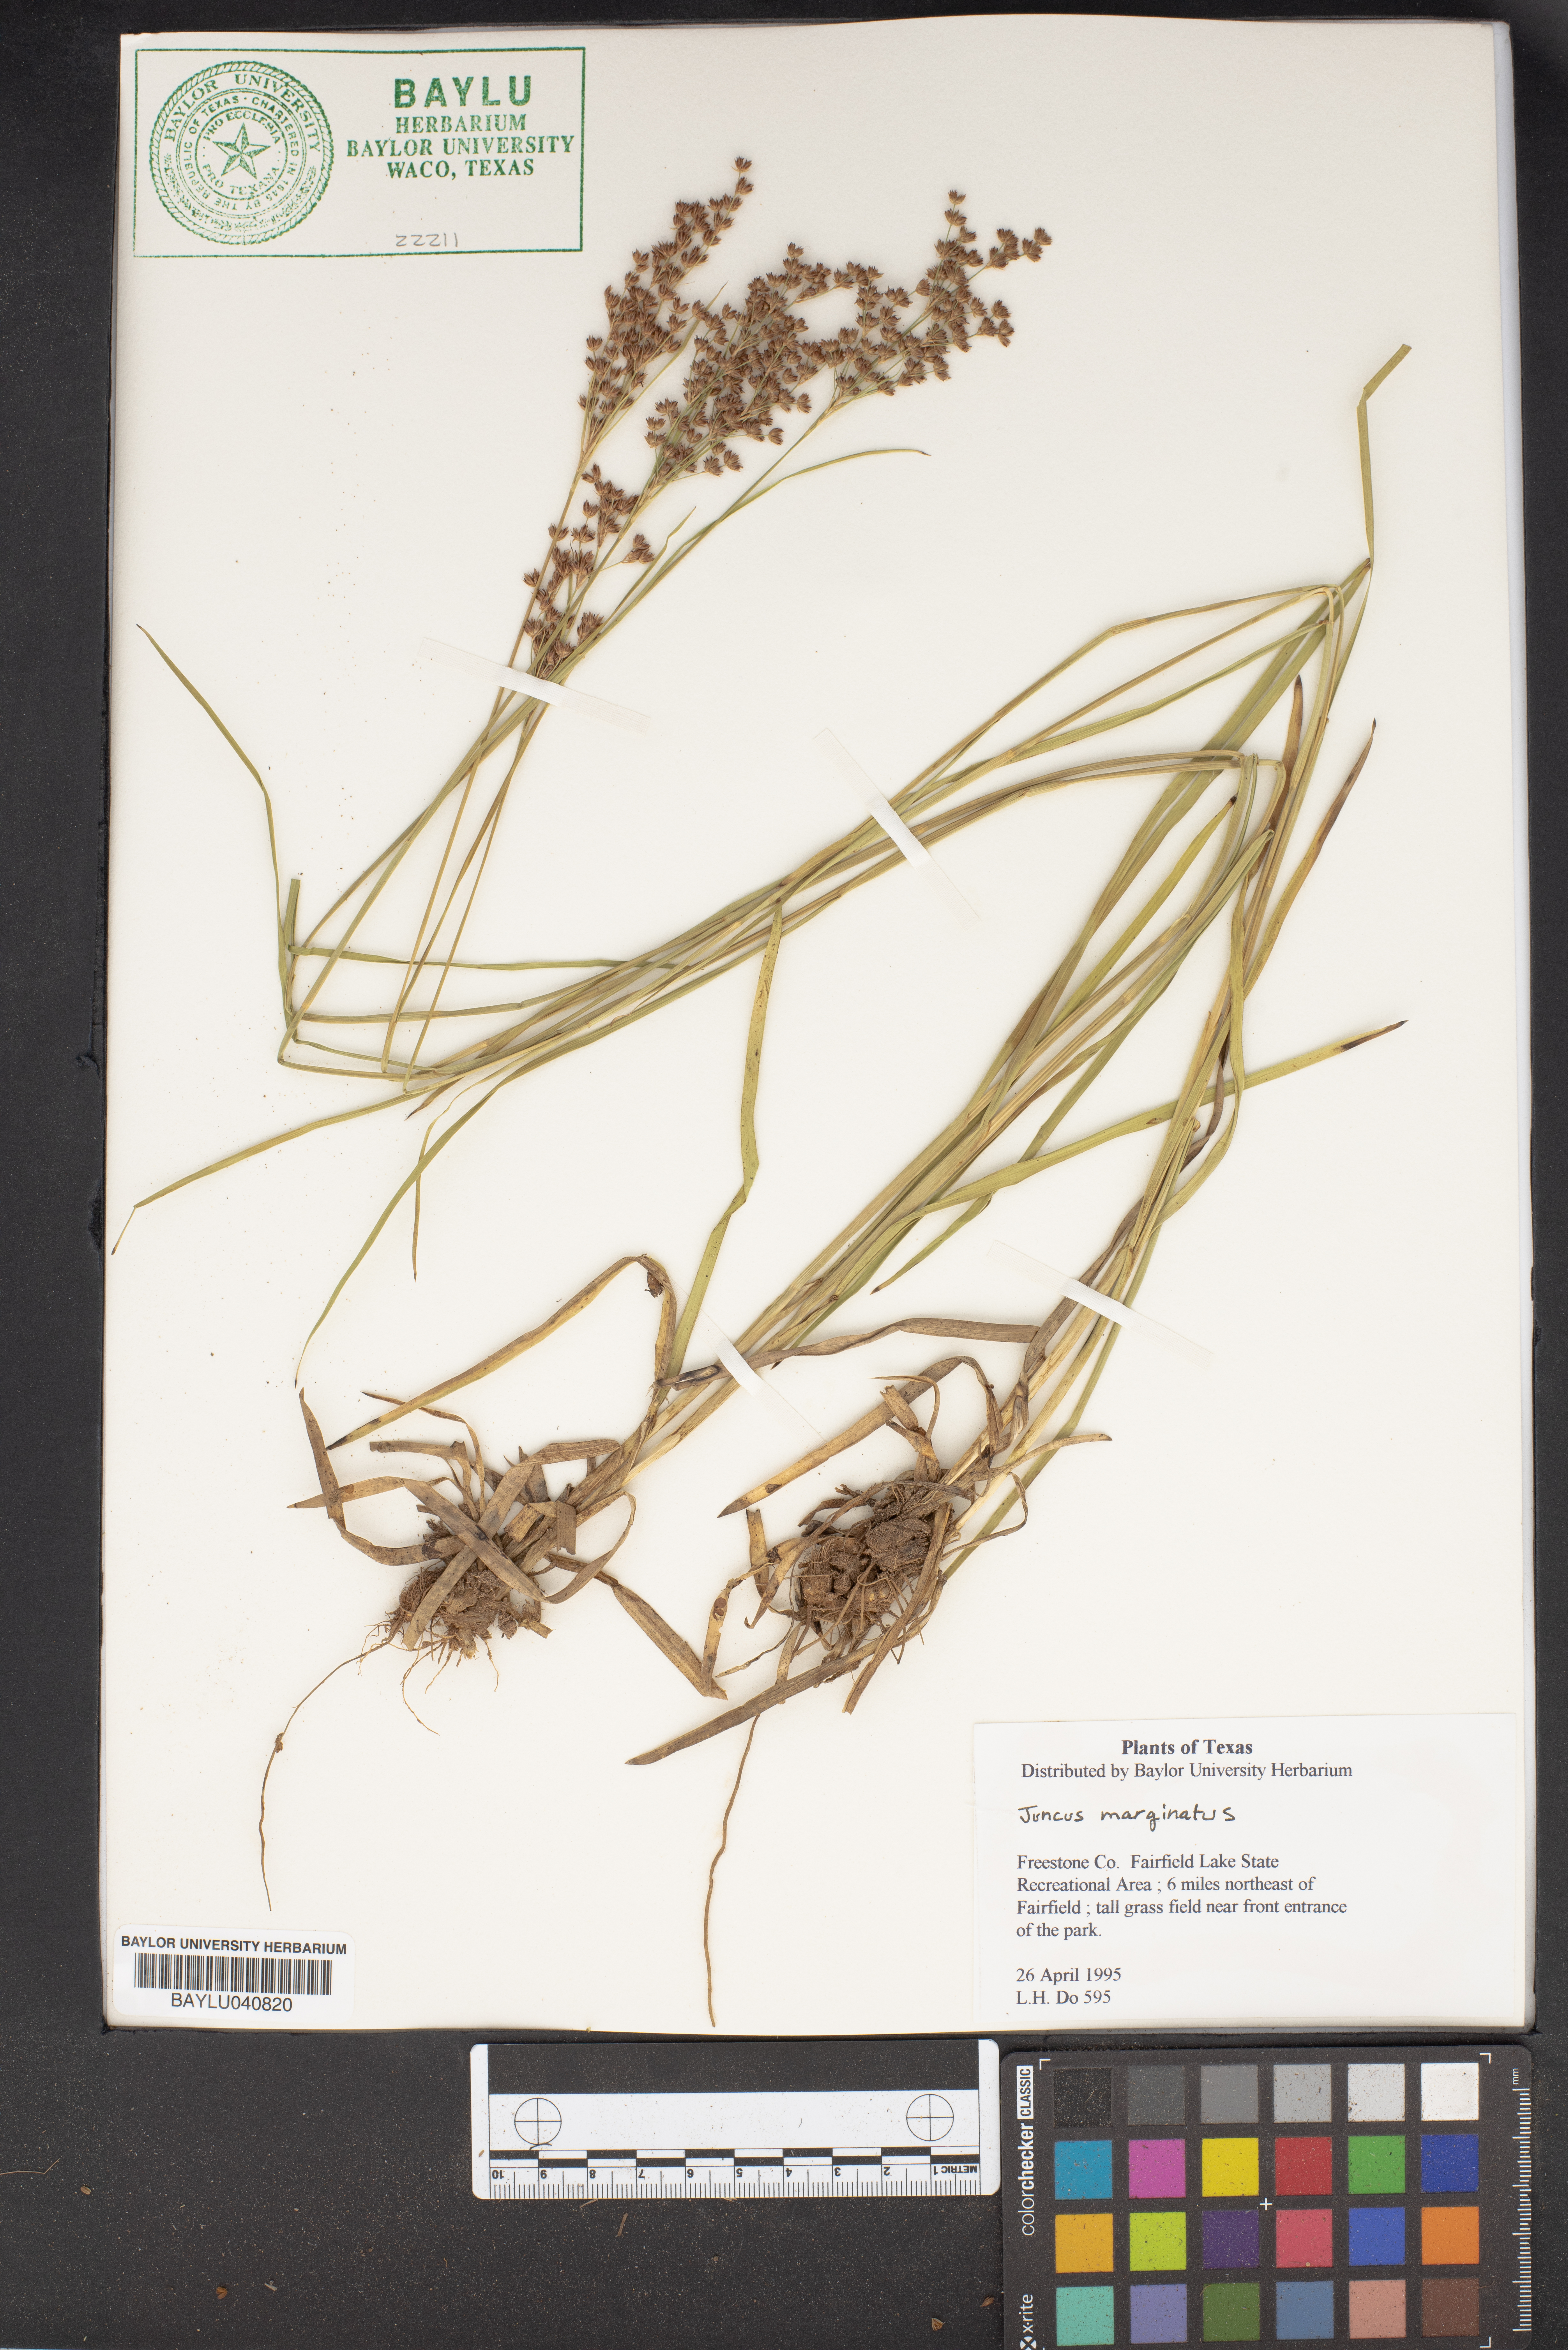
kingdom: Plantae
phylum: Tracheophyta
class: Liliopsida
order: Poales
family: Juncaceae
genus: Juncus
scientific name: Juncus marginatus
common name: Grass-leaf rush
